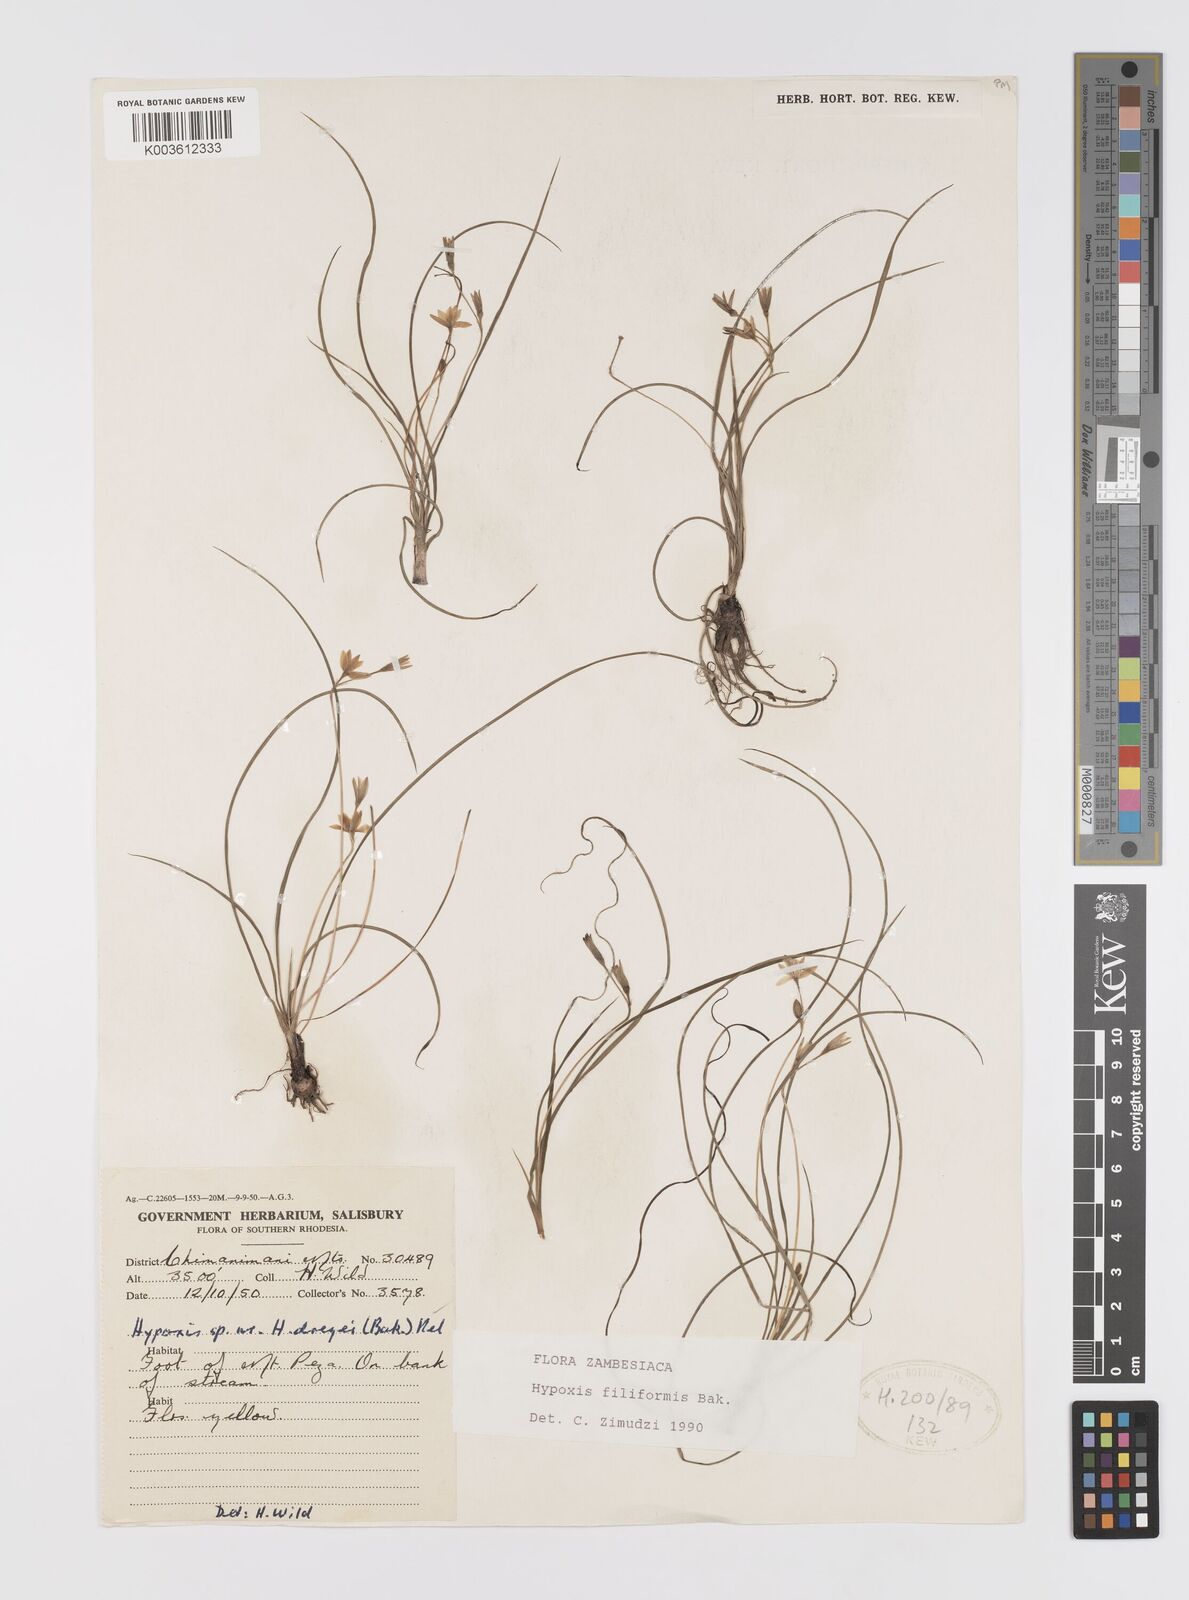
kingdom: Plantae
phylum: Tracheophyta
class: Liliopsida
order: Asparagales
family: Hypoxidaceae
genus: Hypoxis
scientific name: Hypoxis filiformis
